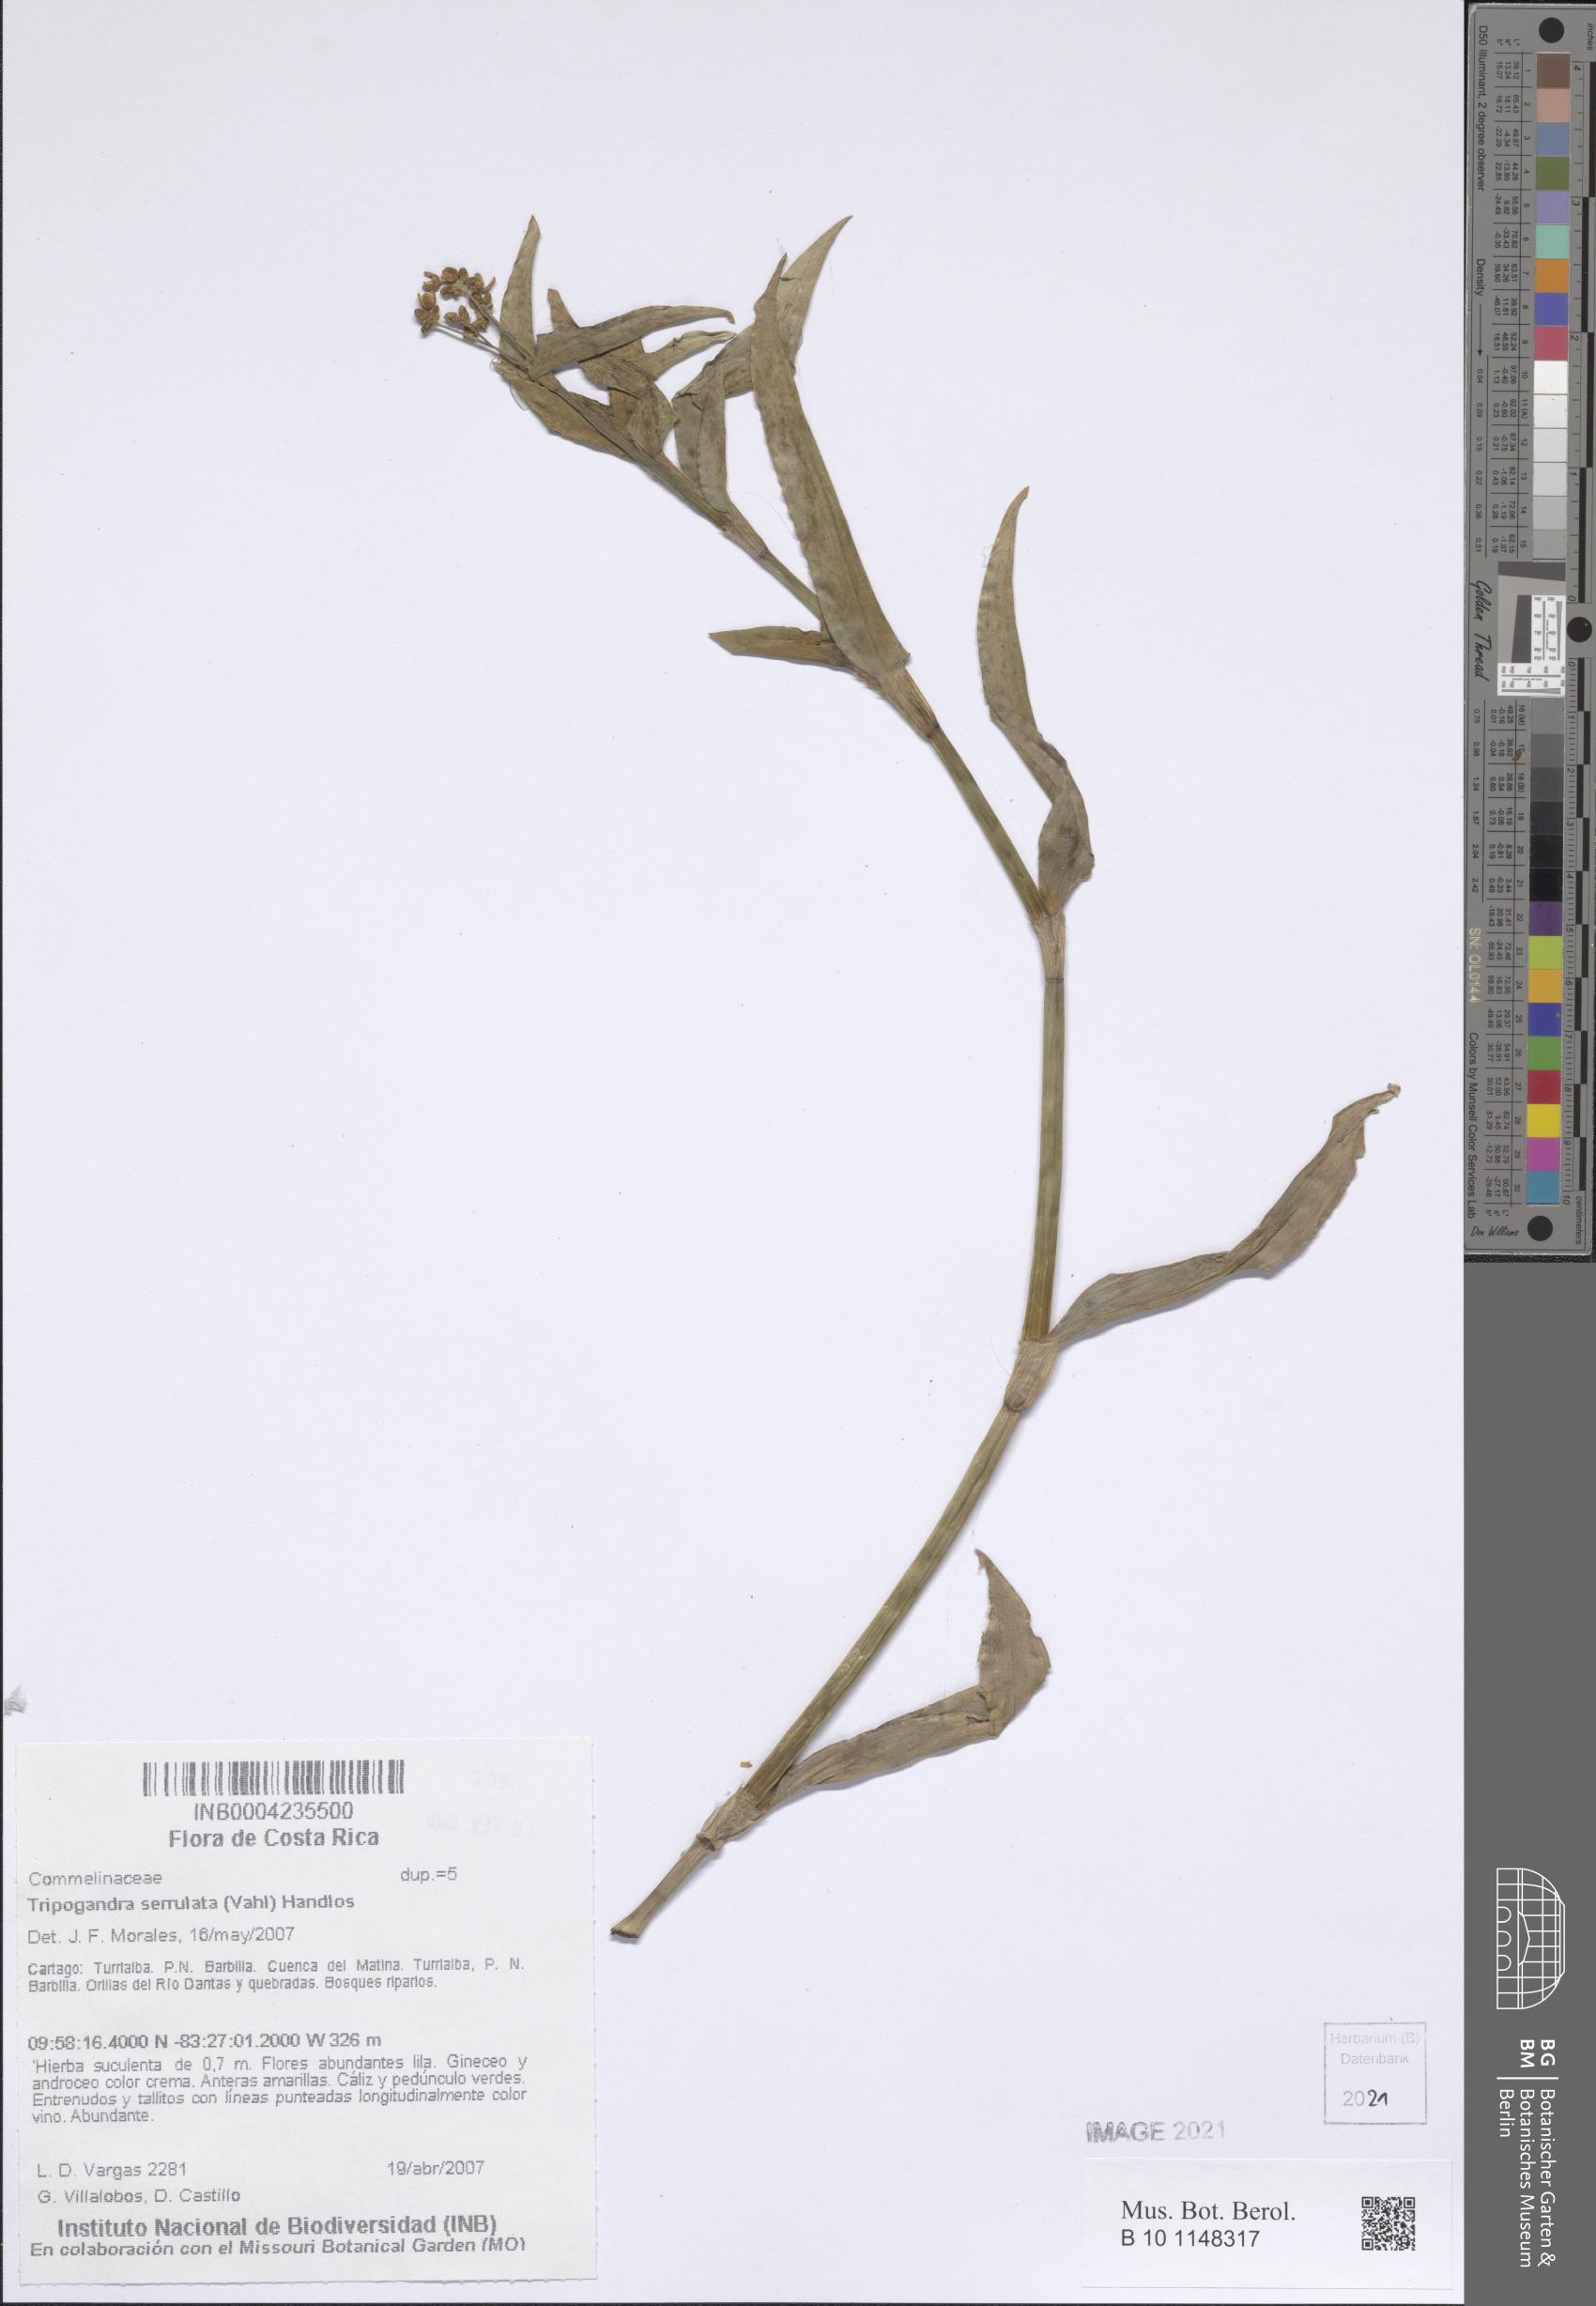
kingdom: Plantae
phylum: Tracheophyta
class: Liliopsida
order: Commelinales
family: Commelinaceae
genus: Callisia
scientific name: Callisia serrulata
